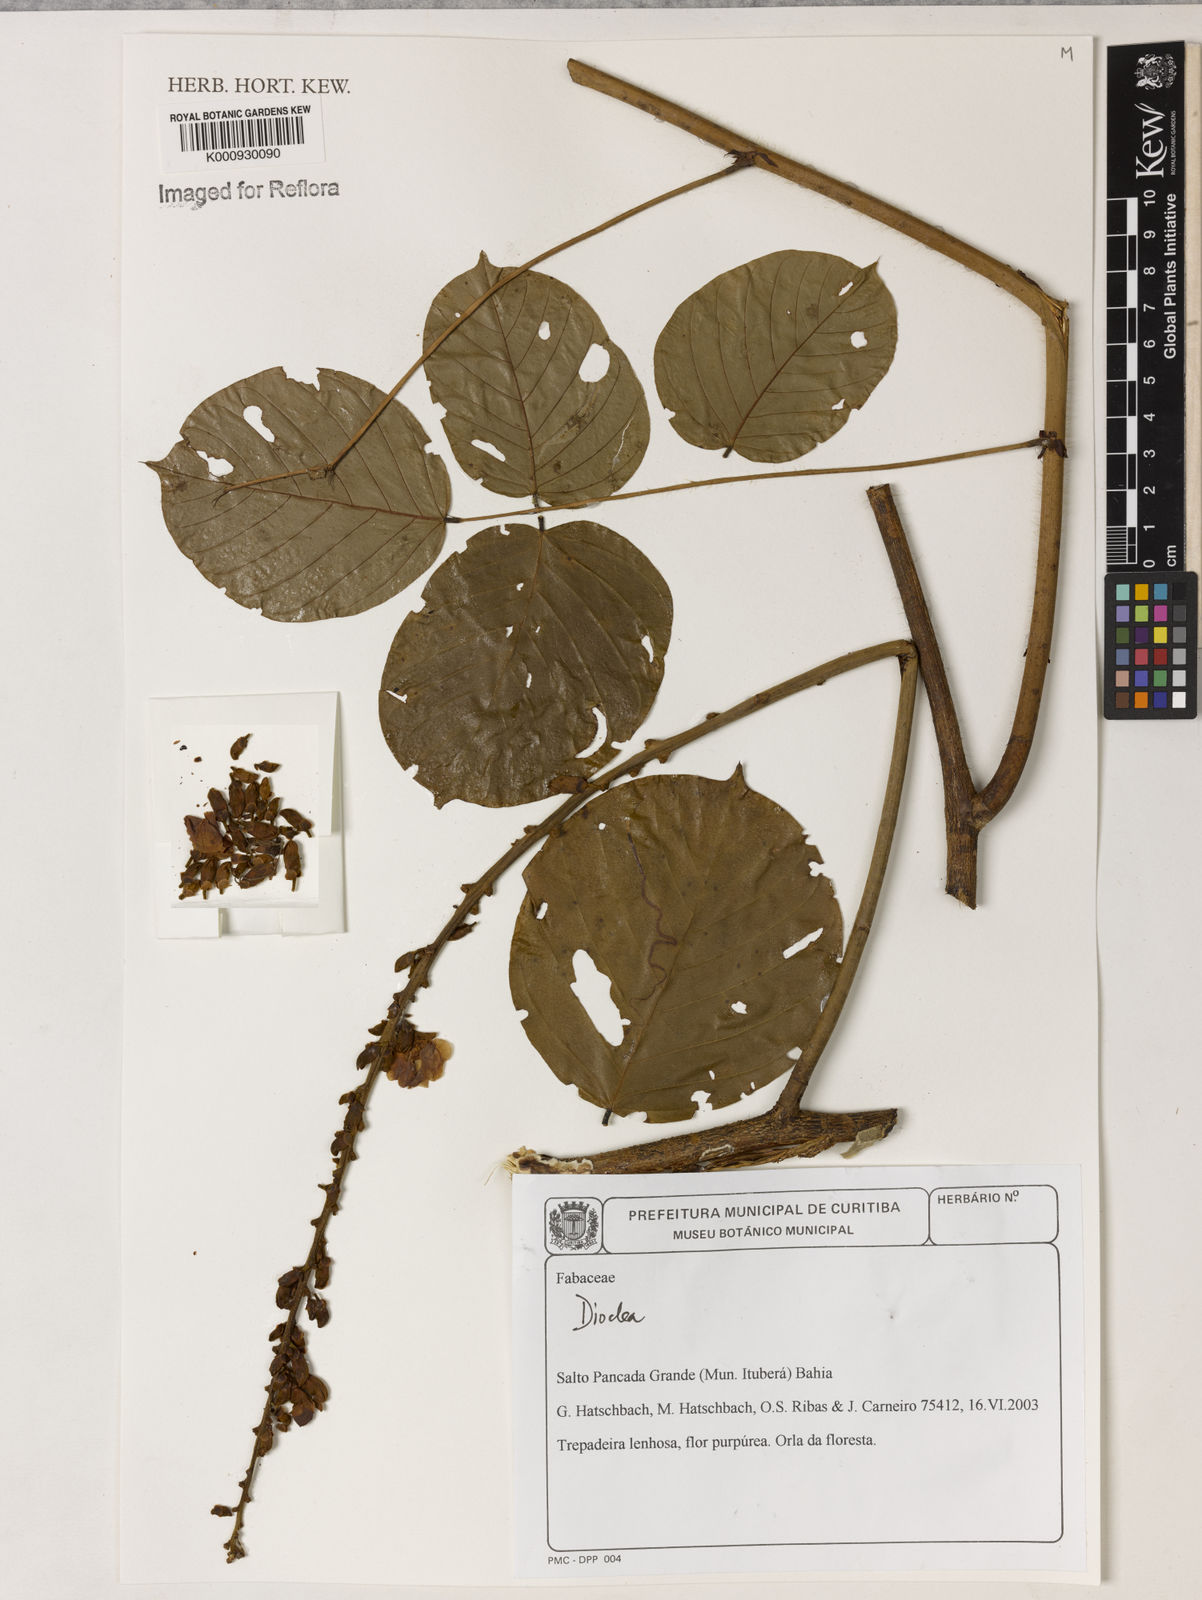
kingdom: Plantae
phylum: Tracheophyta
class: Magnoliopsida
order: Fabales
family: Fabaceae
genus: Dioclea
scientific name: Dioclea
